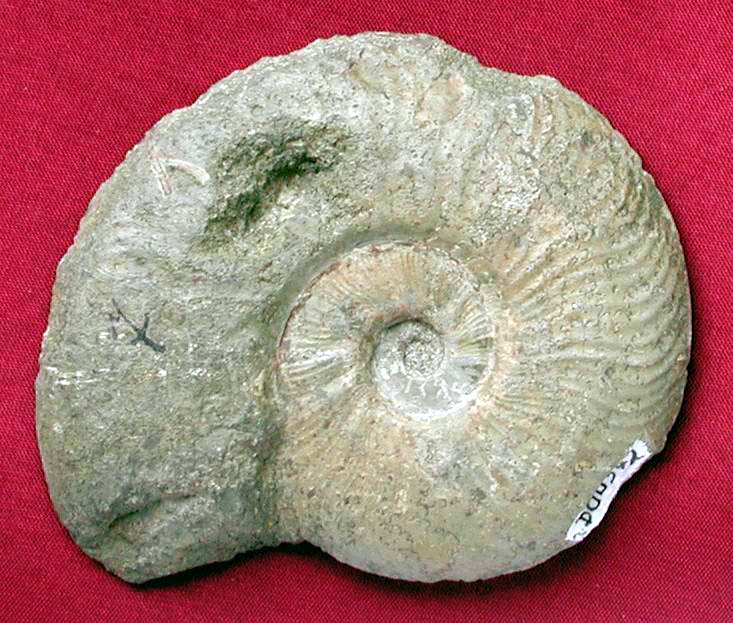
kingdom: Animalia
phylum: Mollusca
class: Cephalopoda
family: Hildoceratidae
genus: Pleydellia
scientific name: Pleydellia
